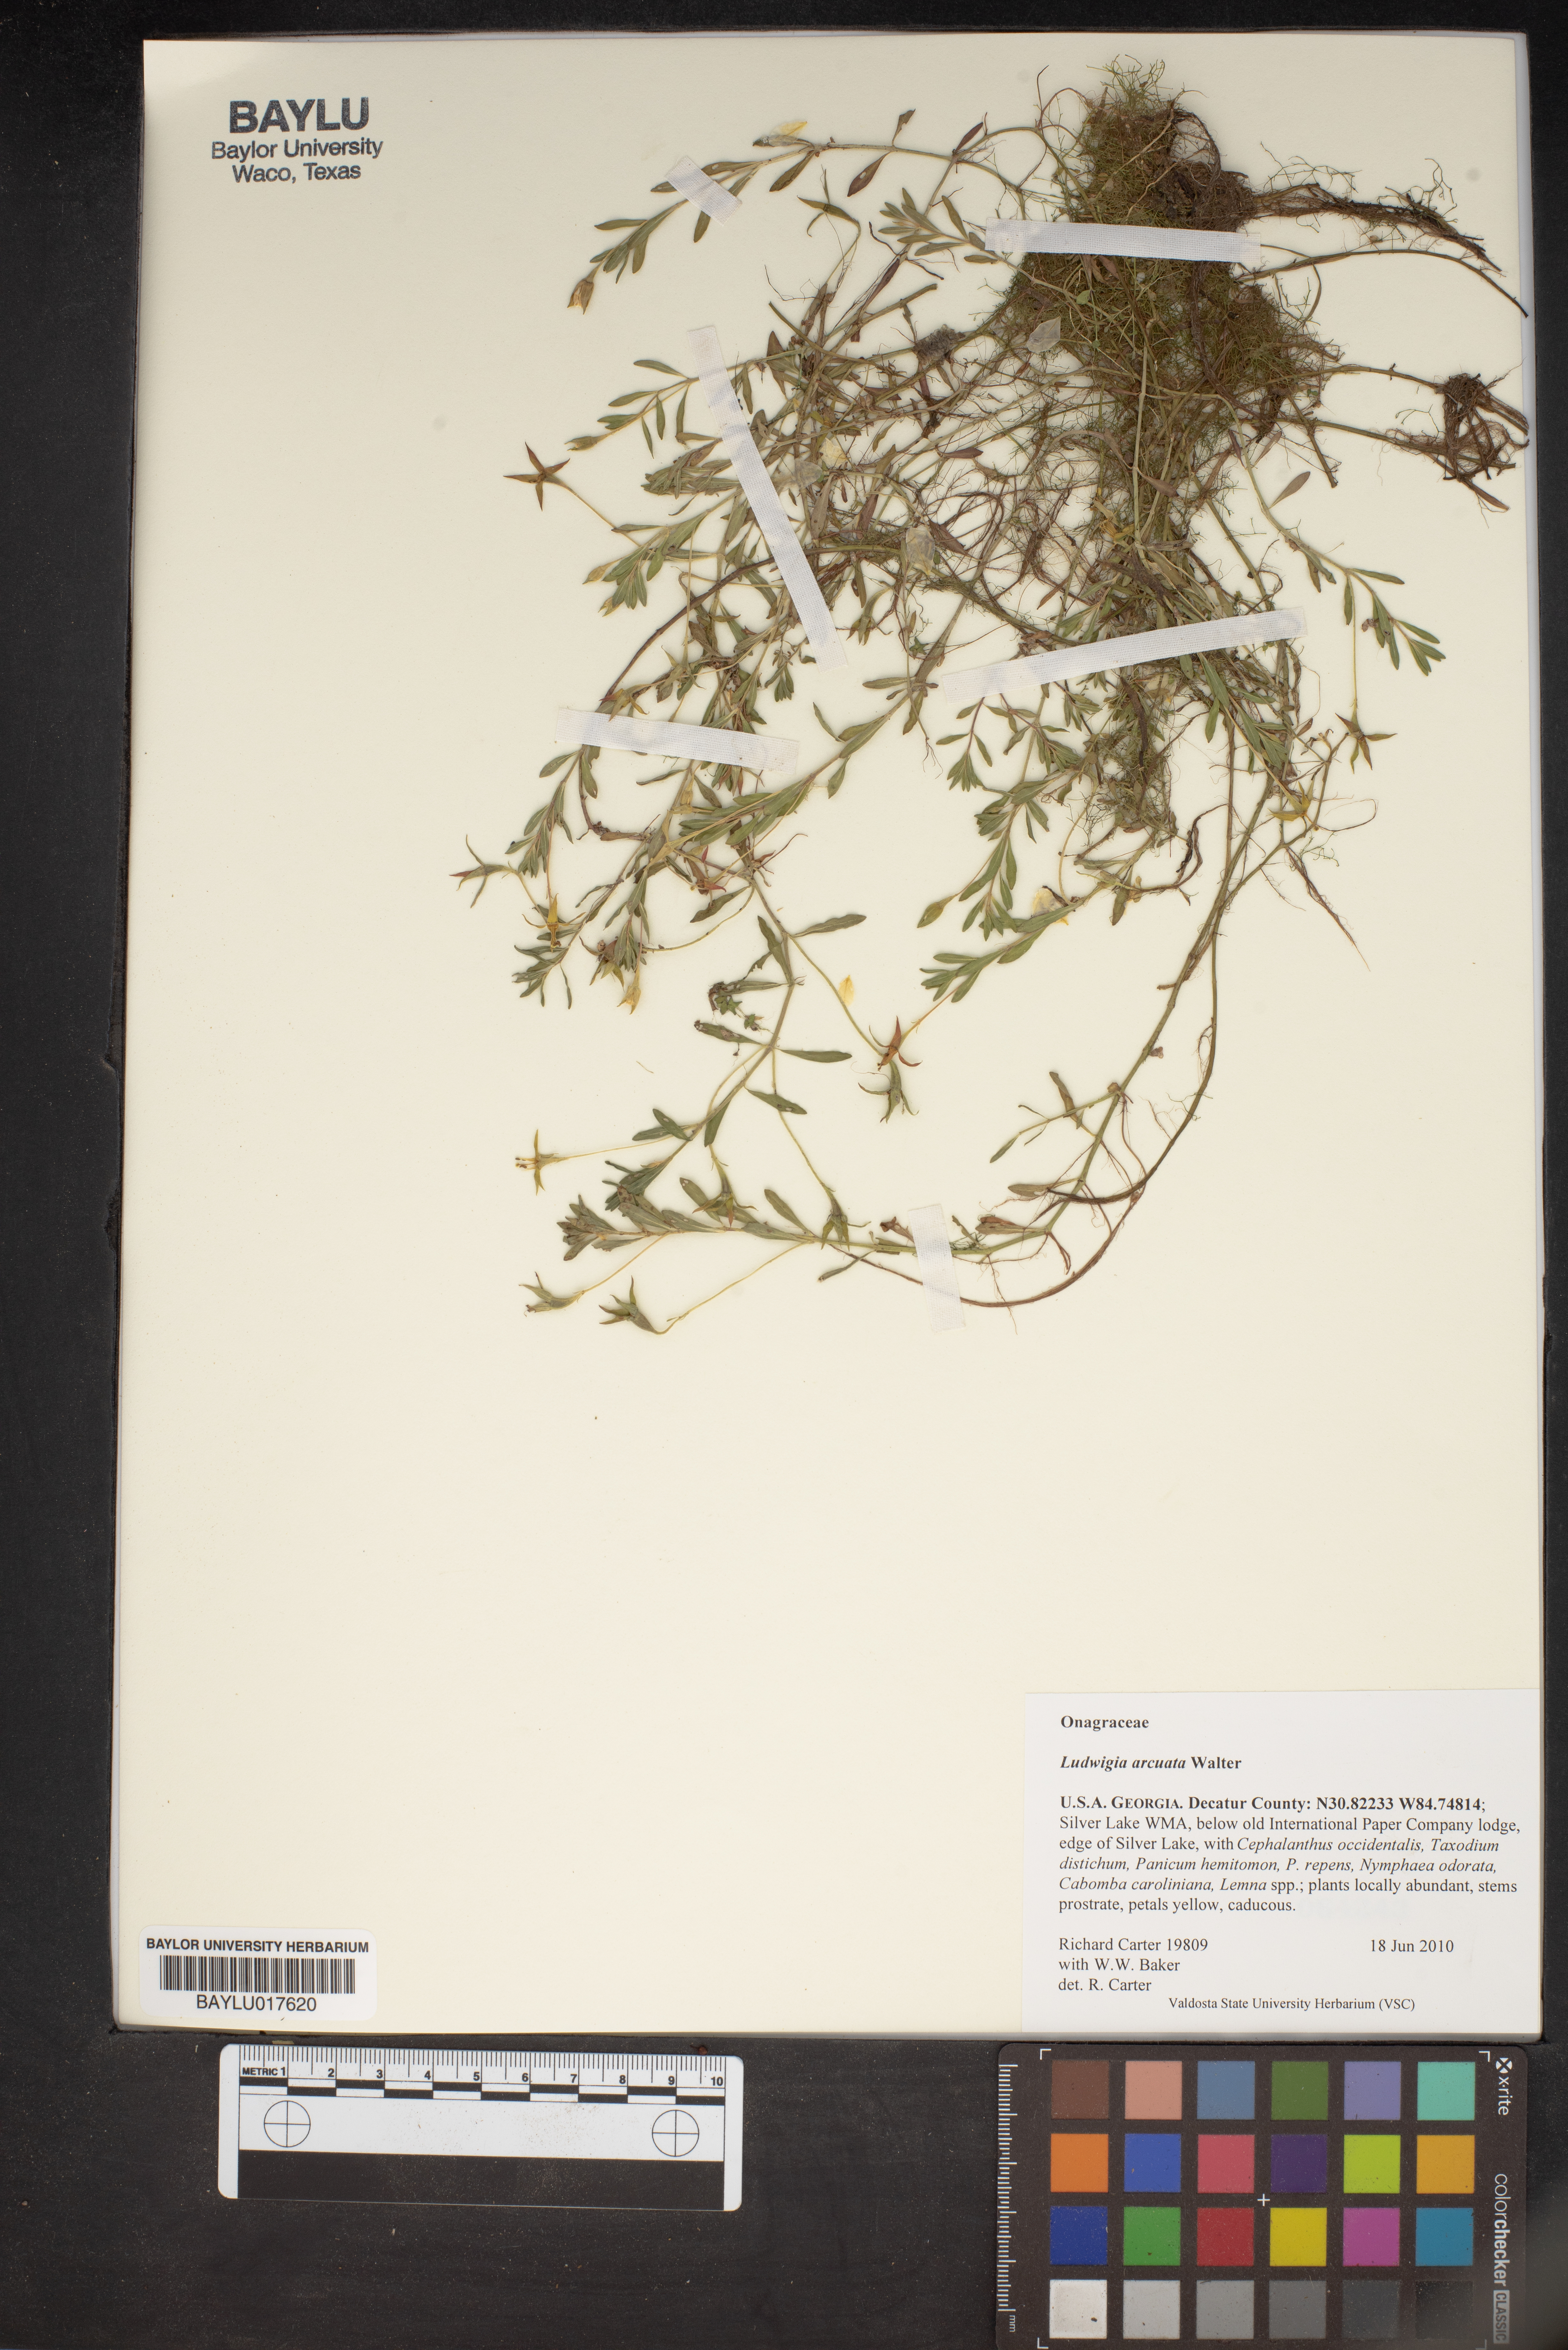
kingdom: Plantae
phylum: Tracheophyta
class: Magnoliopsida
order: Myrtales
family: Onagraceae
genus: Ludwigia
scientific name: Ludwigia arcuata
